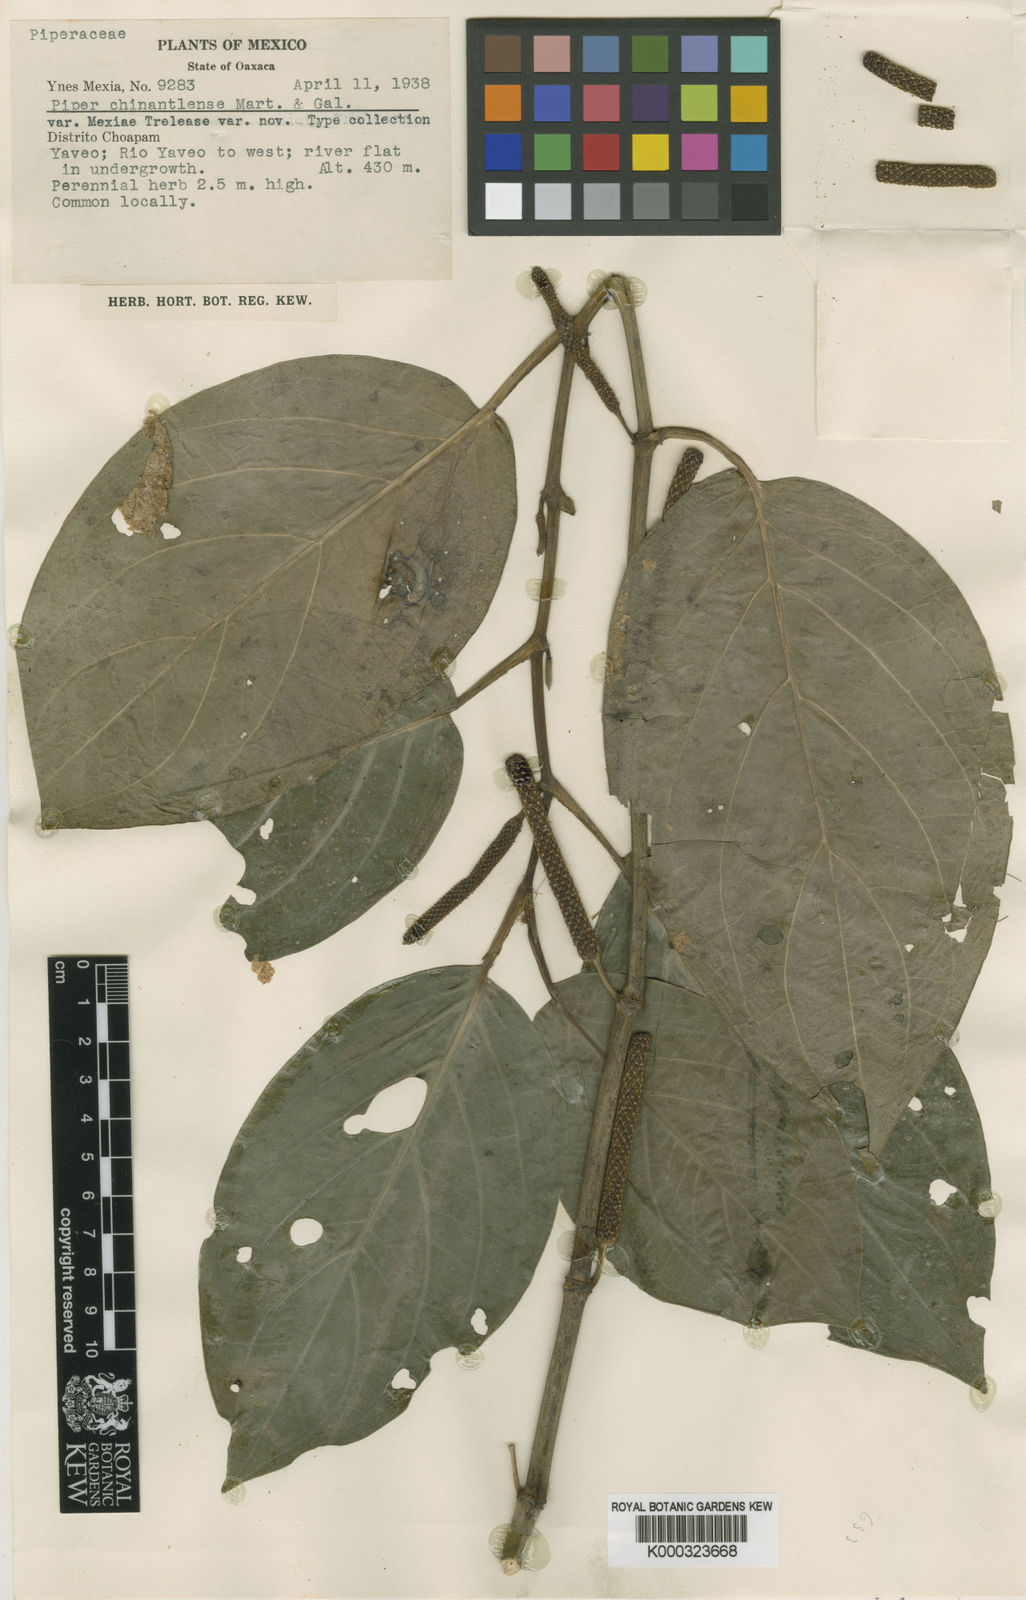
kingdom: Plantae
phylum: Tracheophyta
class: Magnoliopsida
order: Piperales
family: Piperaceae
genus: Piper
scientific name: Piper chinantlense
